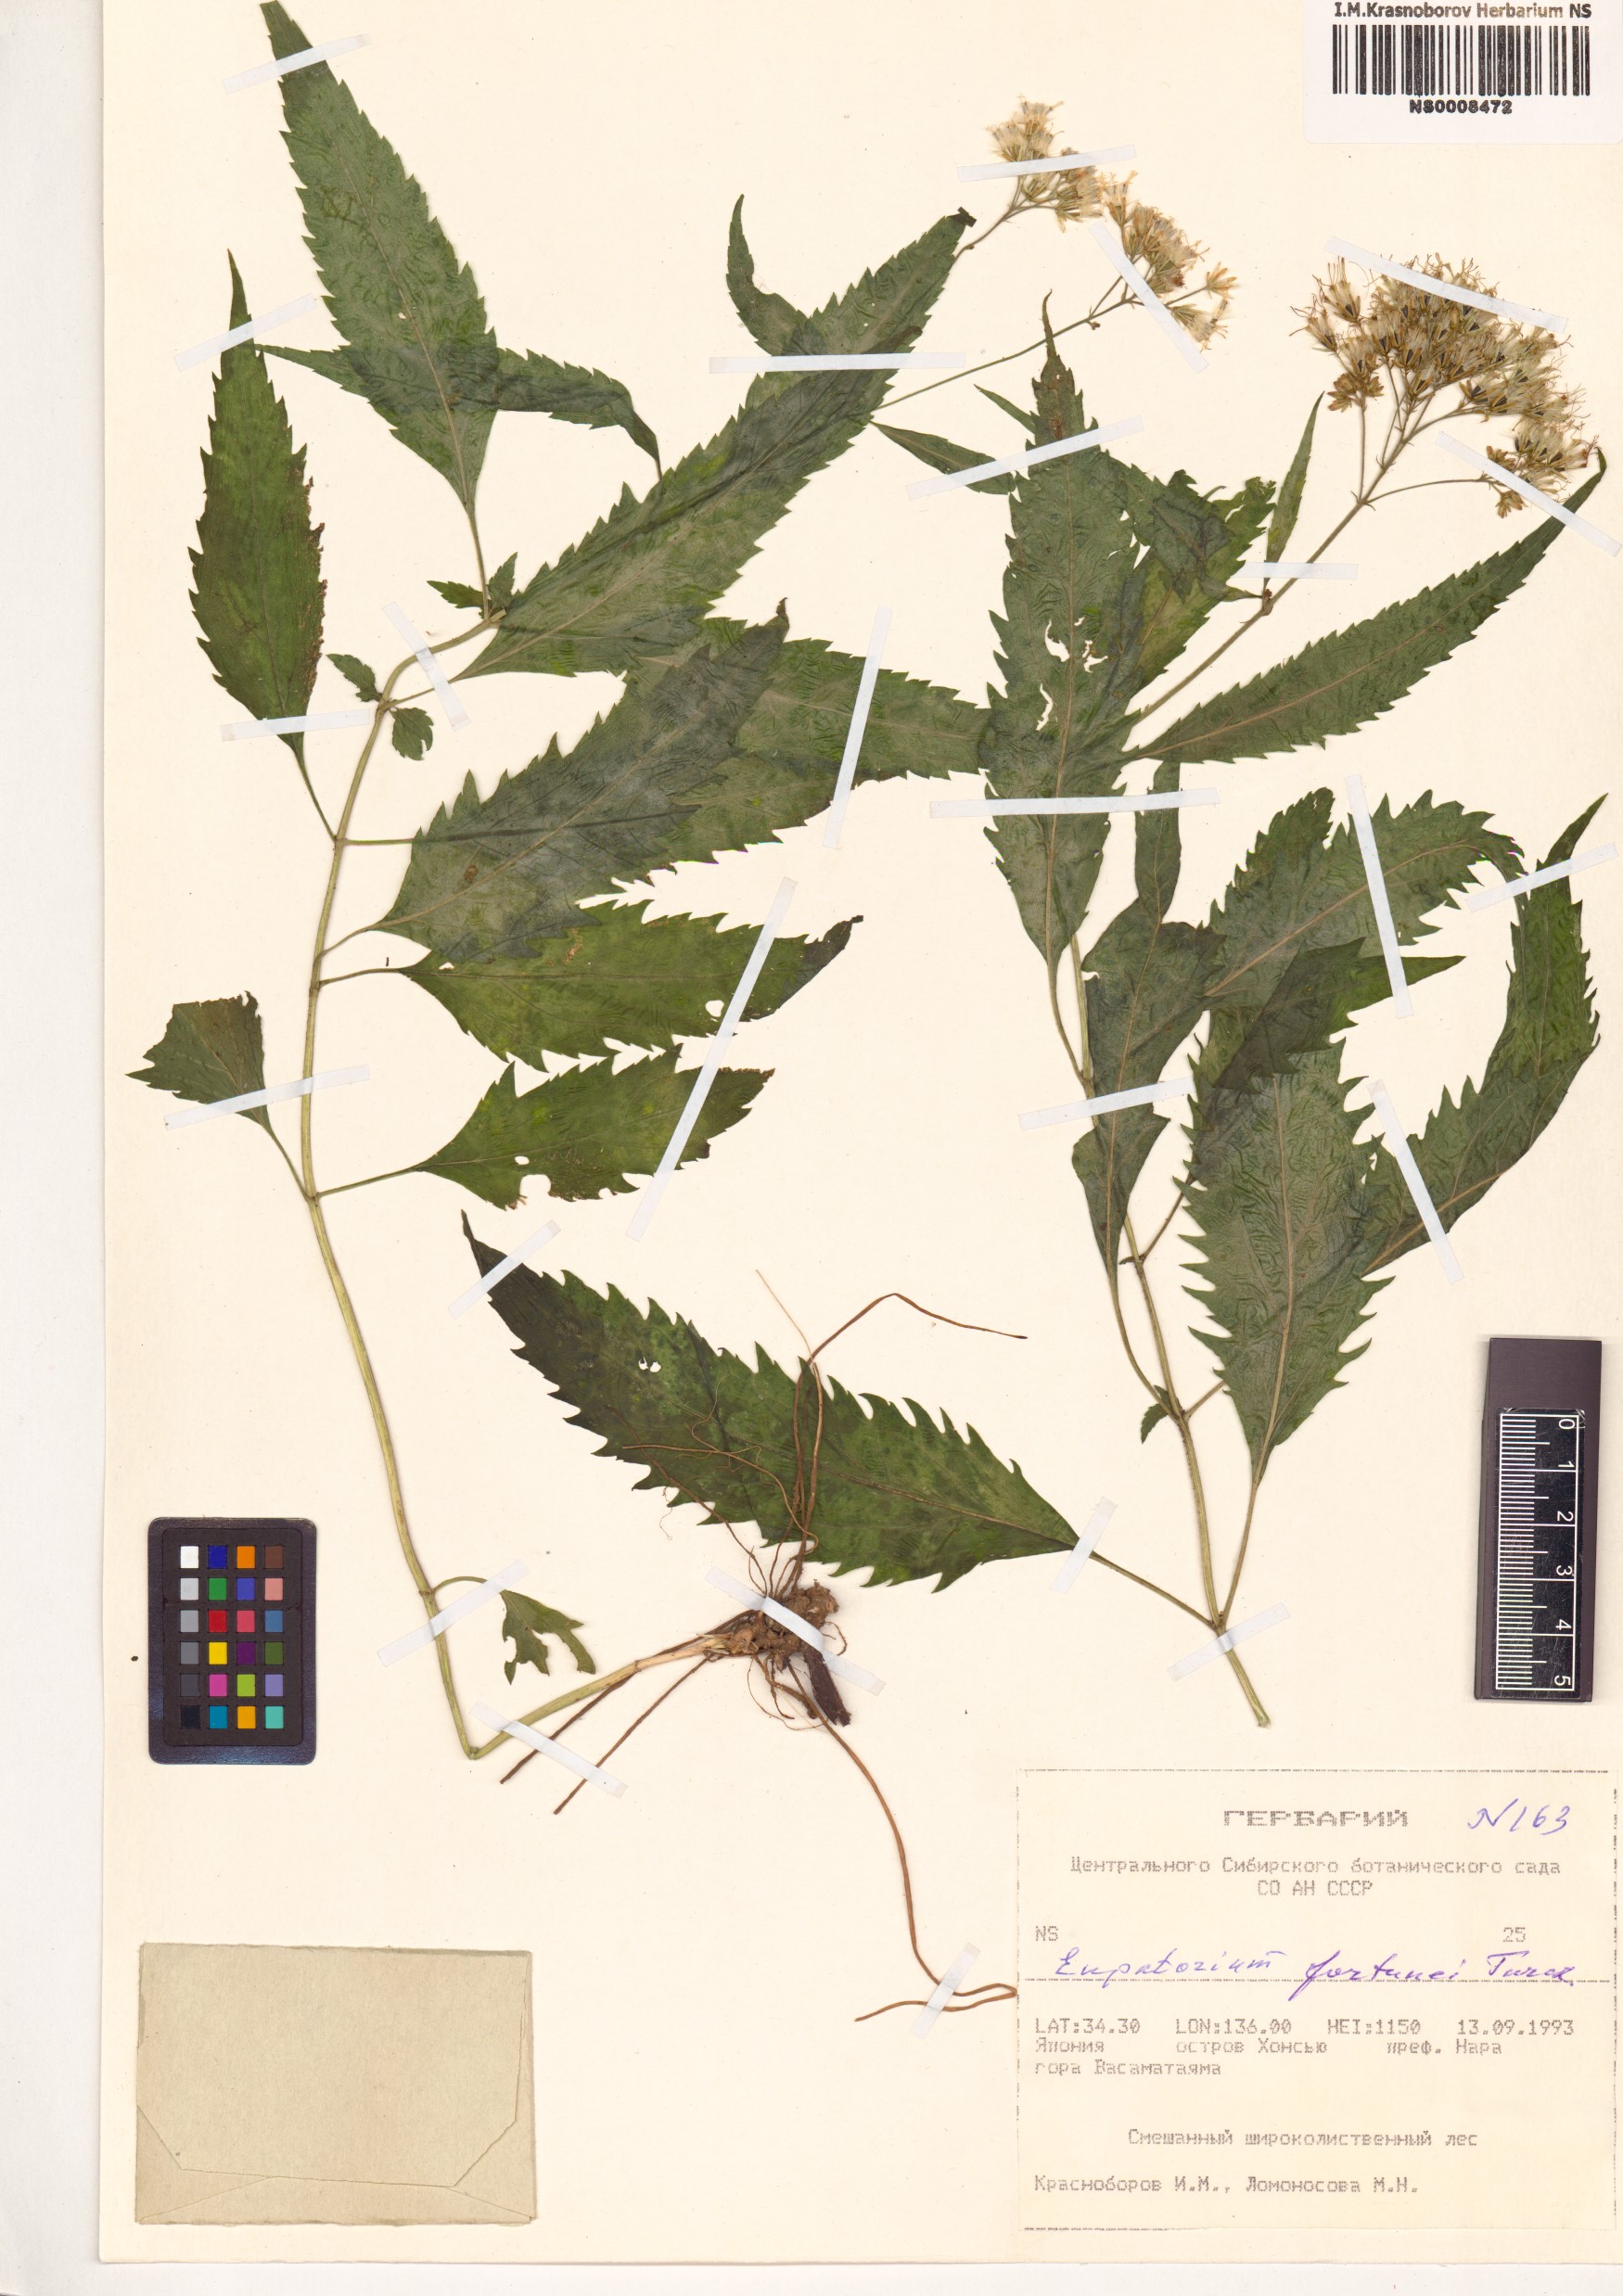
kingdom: Plantae
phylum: Tracheophyta
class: Magnoliopsida
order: Asterales
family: Asteraceae
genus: Eupatorium
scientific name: Eupatorium fortunei
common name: Chinese eupatorium
